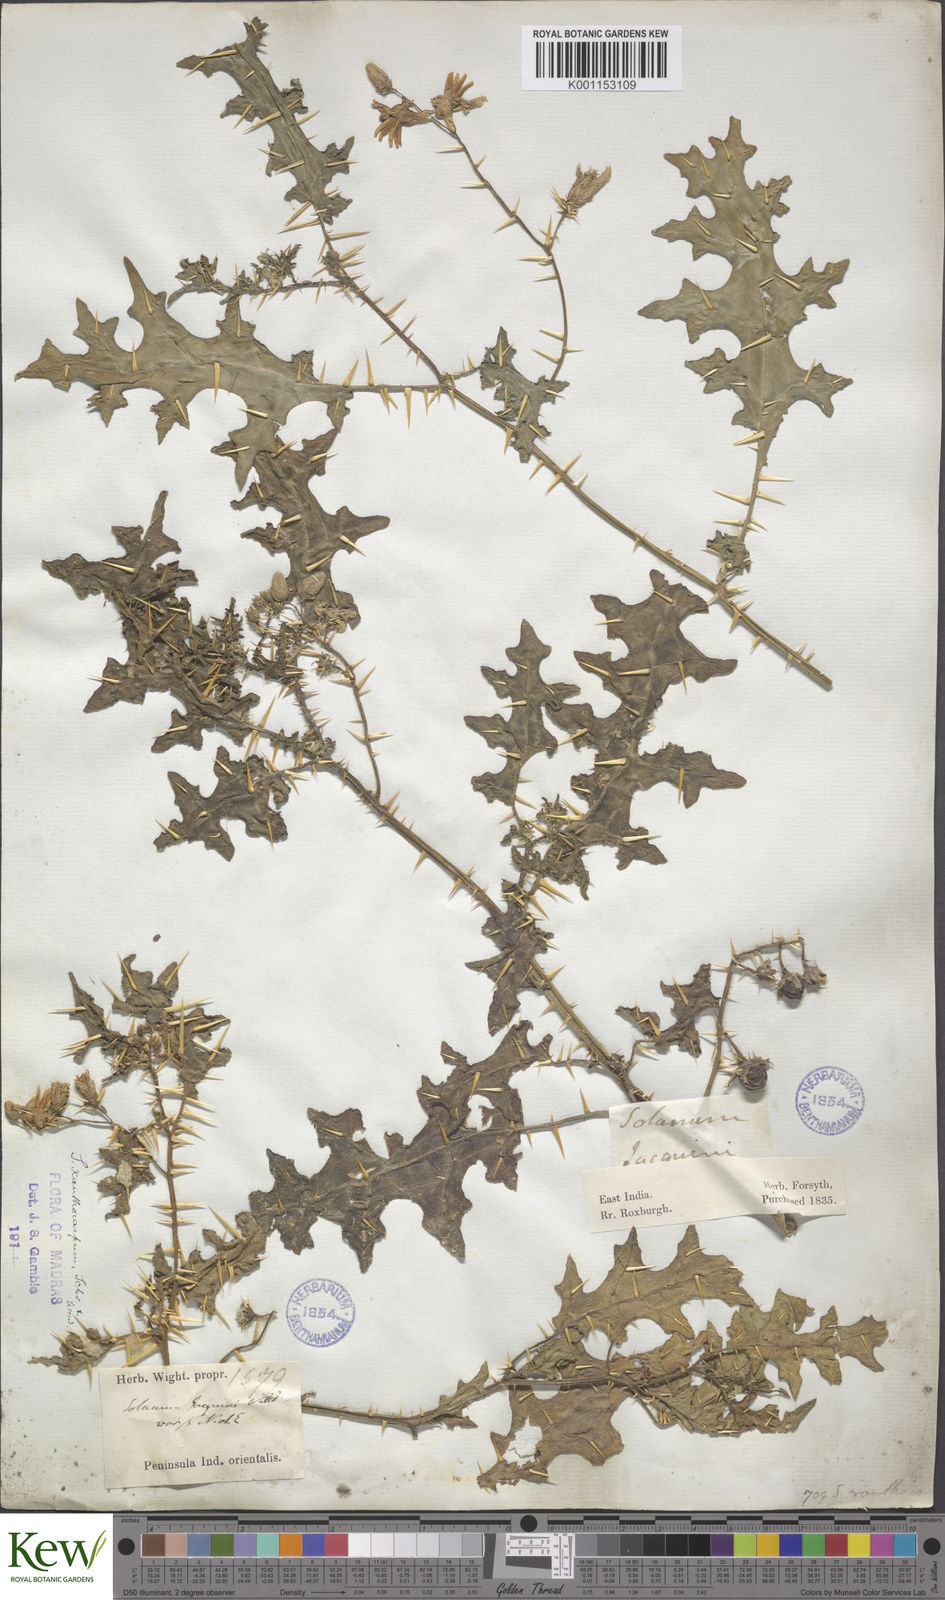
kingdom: Plantae
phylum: Tracheophyta
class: Magnoliopsida
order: Solanales
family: Solanaceae
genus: Solanum
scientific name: Solanum virginianum
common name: Surattense nightshade
